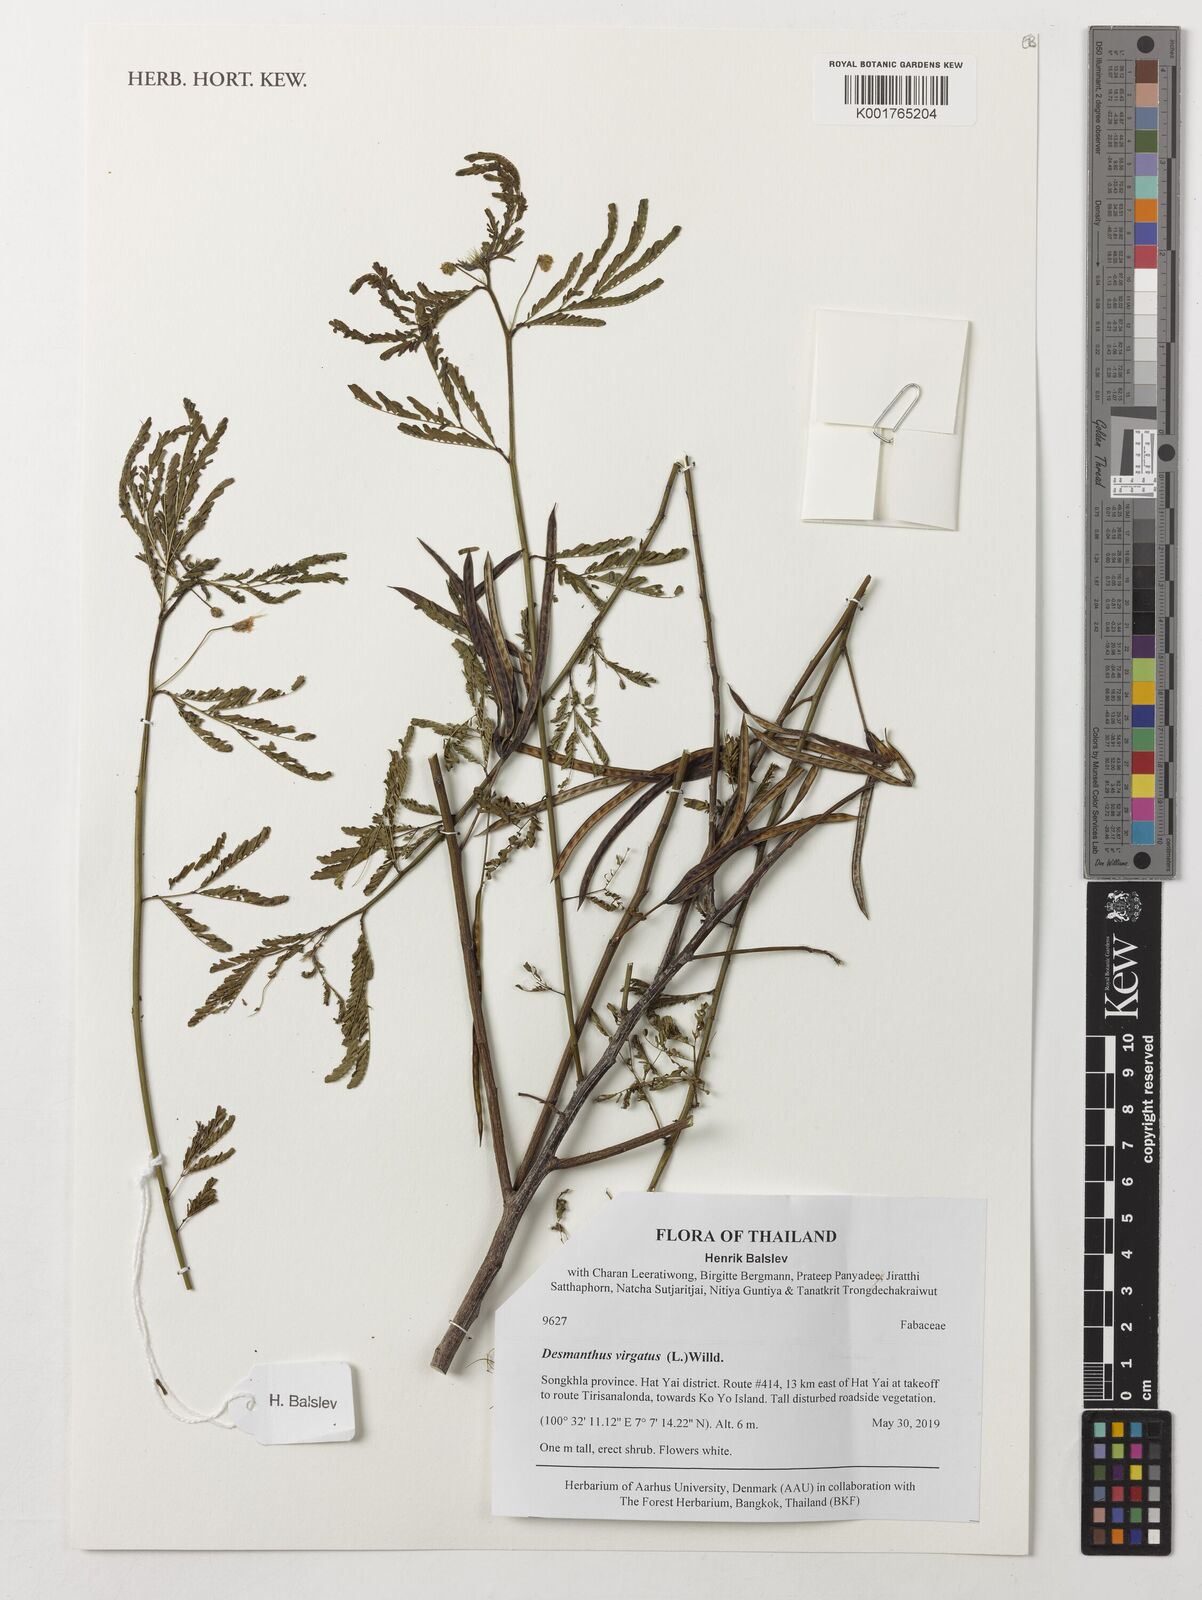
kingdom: Plantae
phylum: Tracheophyta
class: Magnoliopsida
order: Fabales
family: Fabaceae
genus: Desmanthus
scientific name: Desmanthus virgatus
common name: Wild tantan
